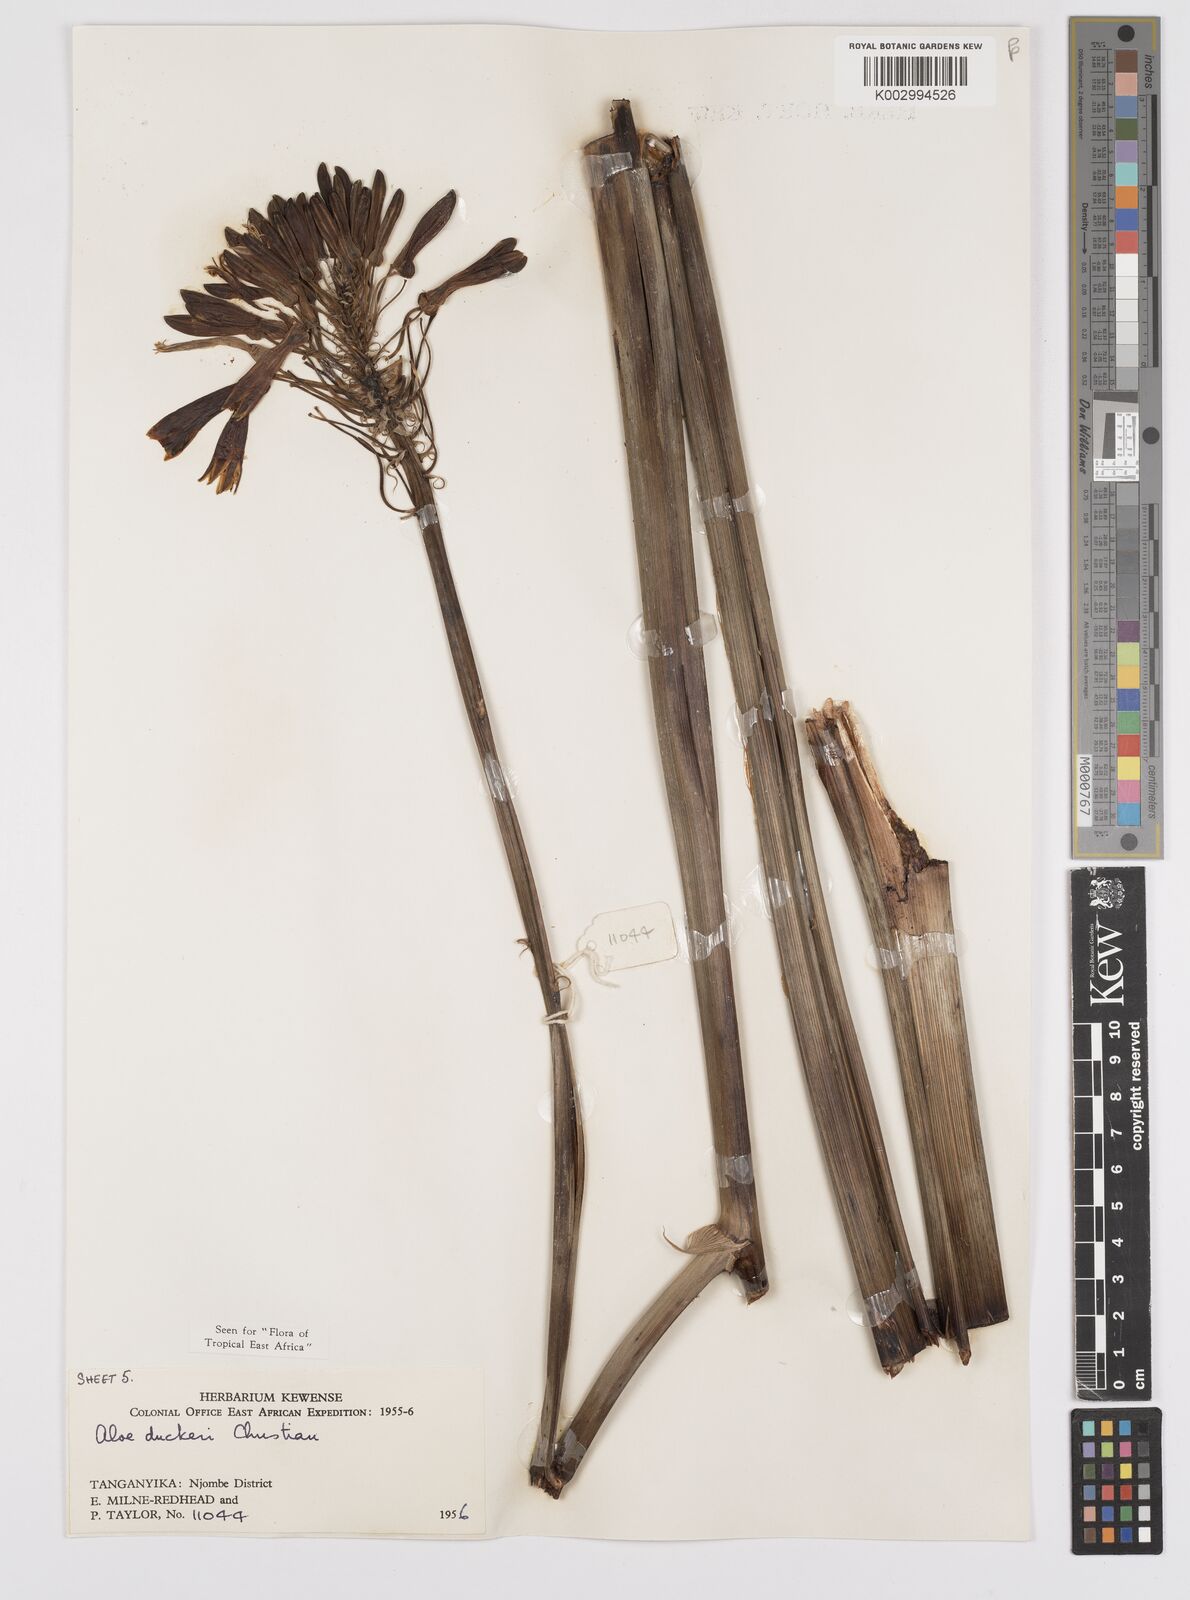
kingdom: Plantae
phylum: Tracheophyta
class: Liliopsida
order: Asparagales
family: Asphodelaceae
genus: Aloe
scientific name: Aloe duckeri
